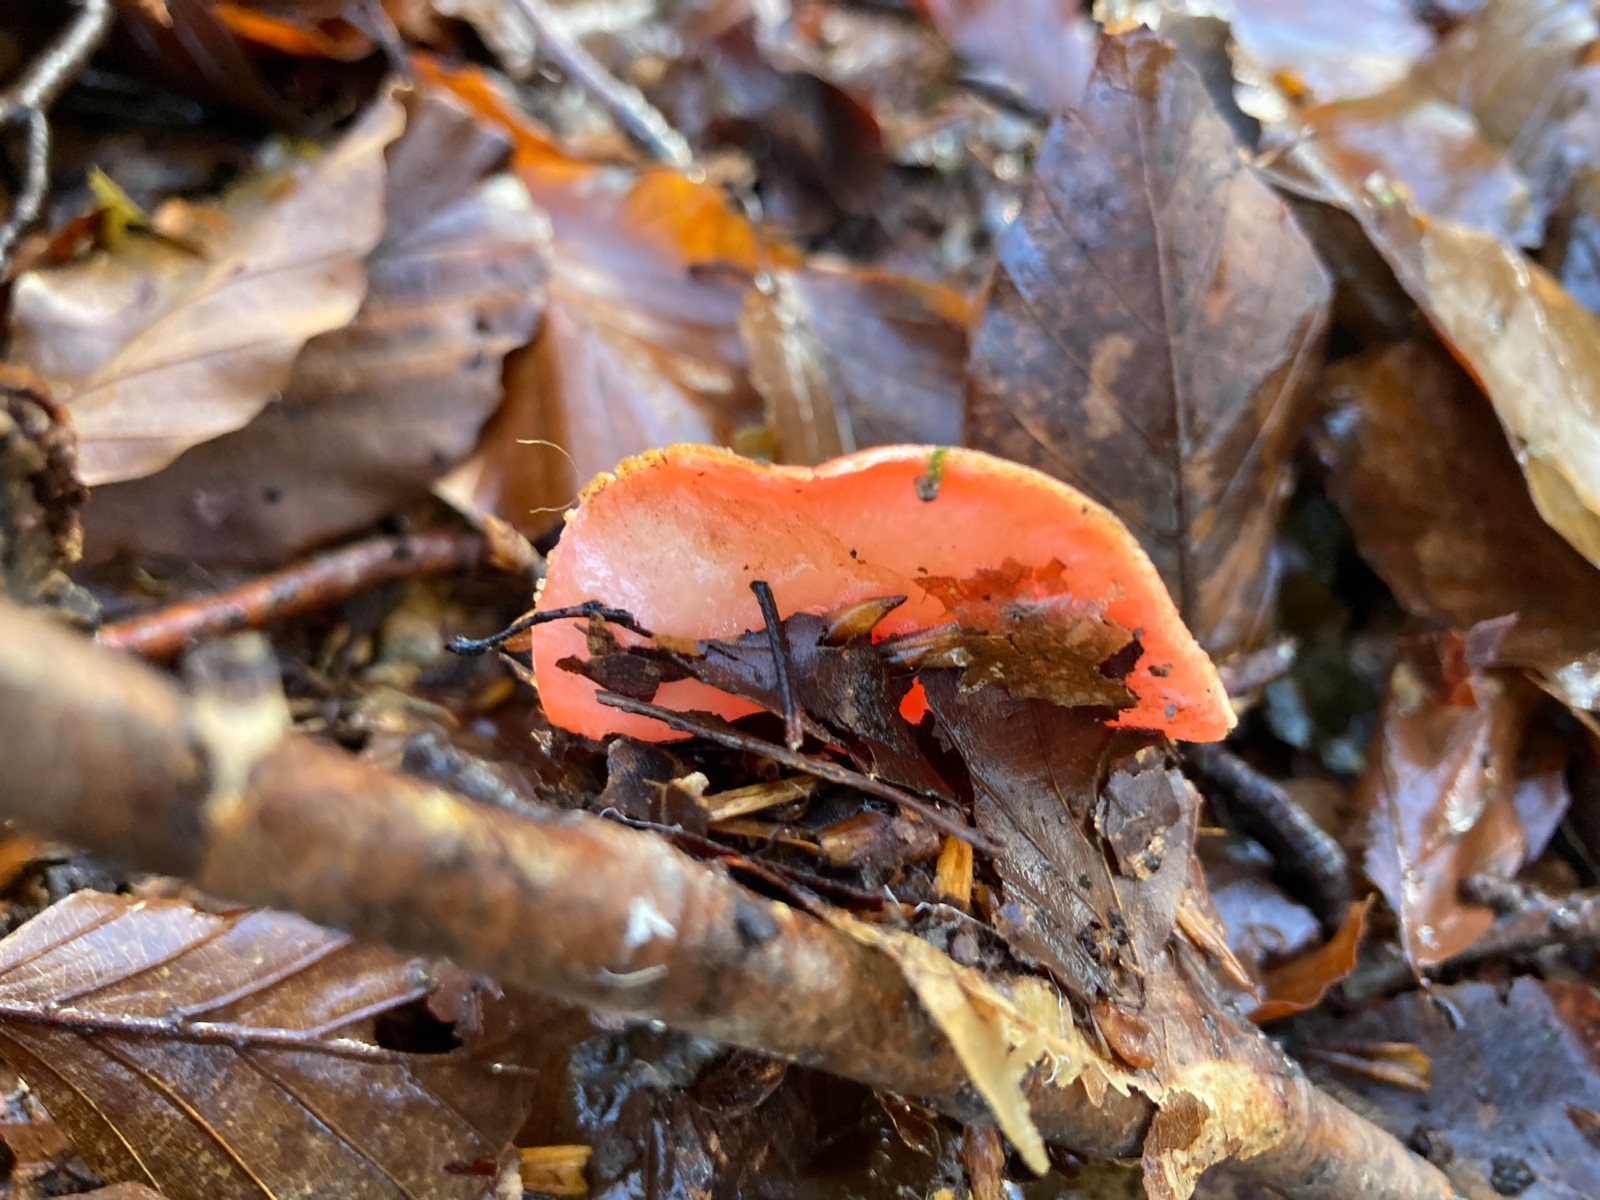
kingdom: Fungi
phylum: Ascomycota
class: Pezizomycetes
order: Pezizales
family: Sarcoscyphaceae
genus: Sarcoscypha
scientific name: Sarcoscypha coccinea
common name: skarlagen-pragtbæger
